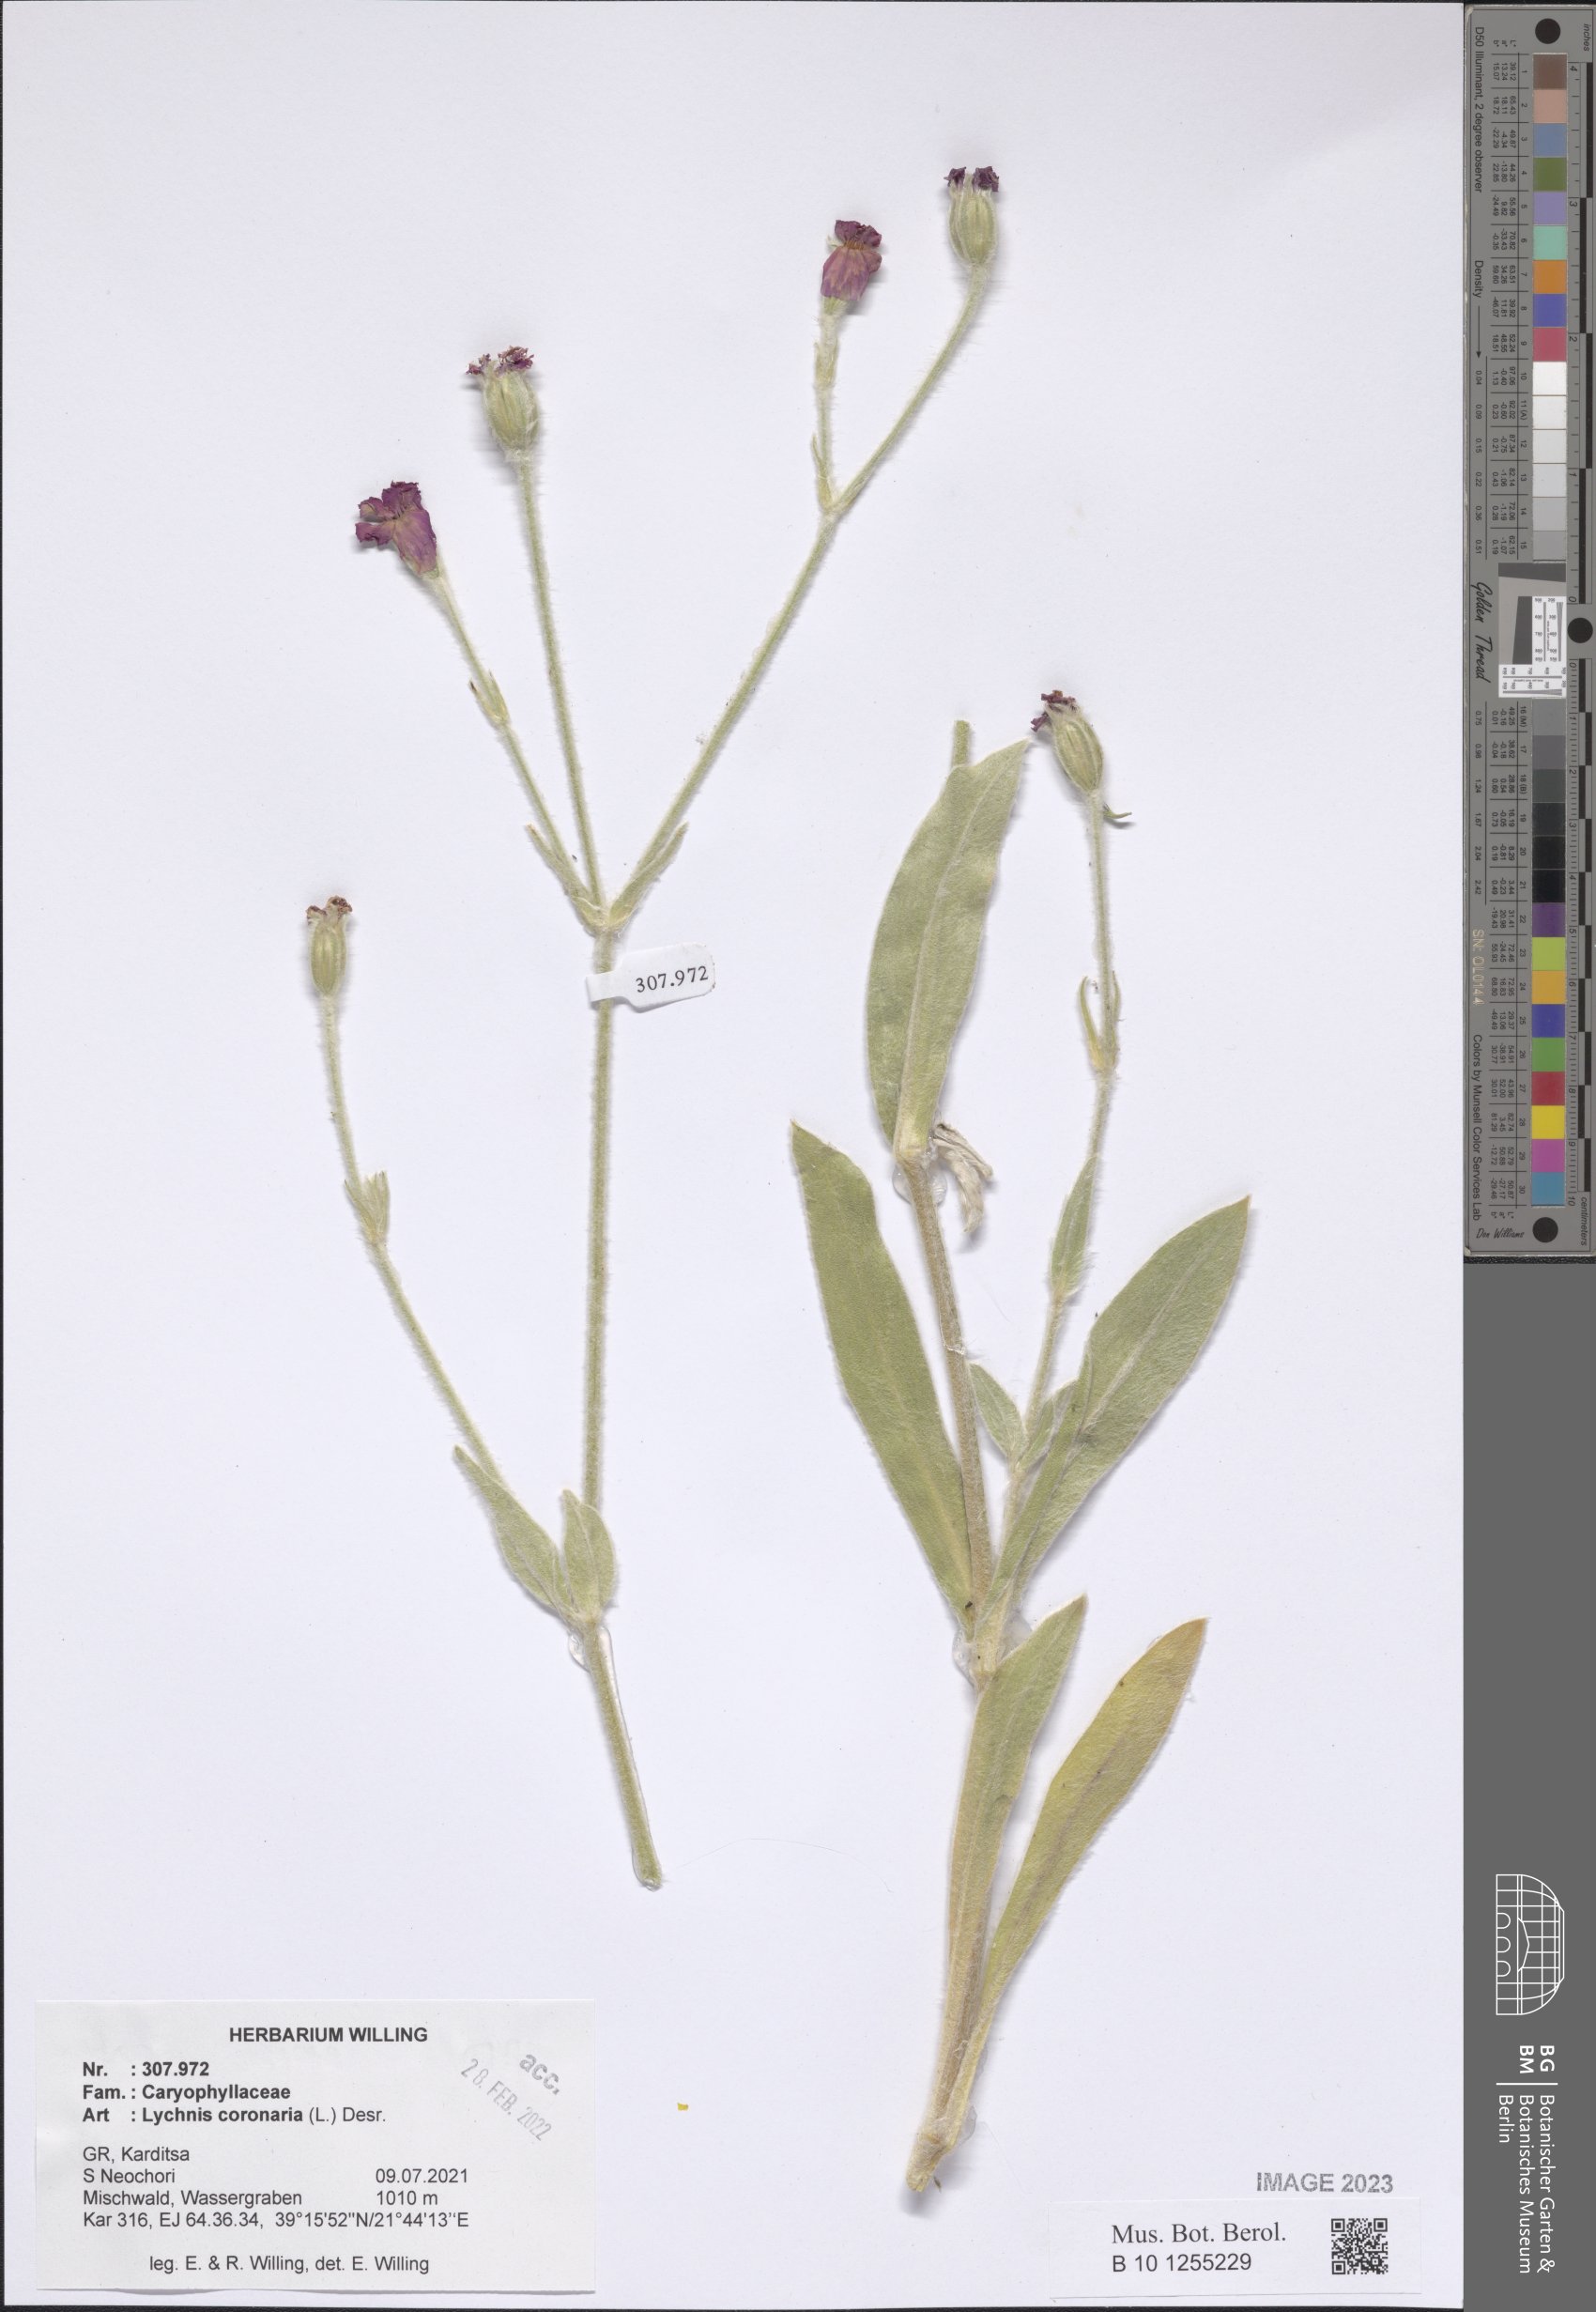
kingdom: Plantae
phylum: Tracheophyta
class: Magnoliopsida
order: Caryophyllales
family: Caryophyllaceae
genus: Silene
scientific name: Silene coronaria
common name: Rose campion
